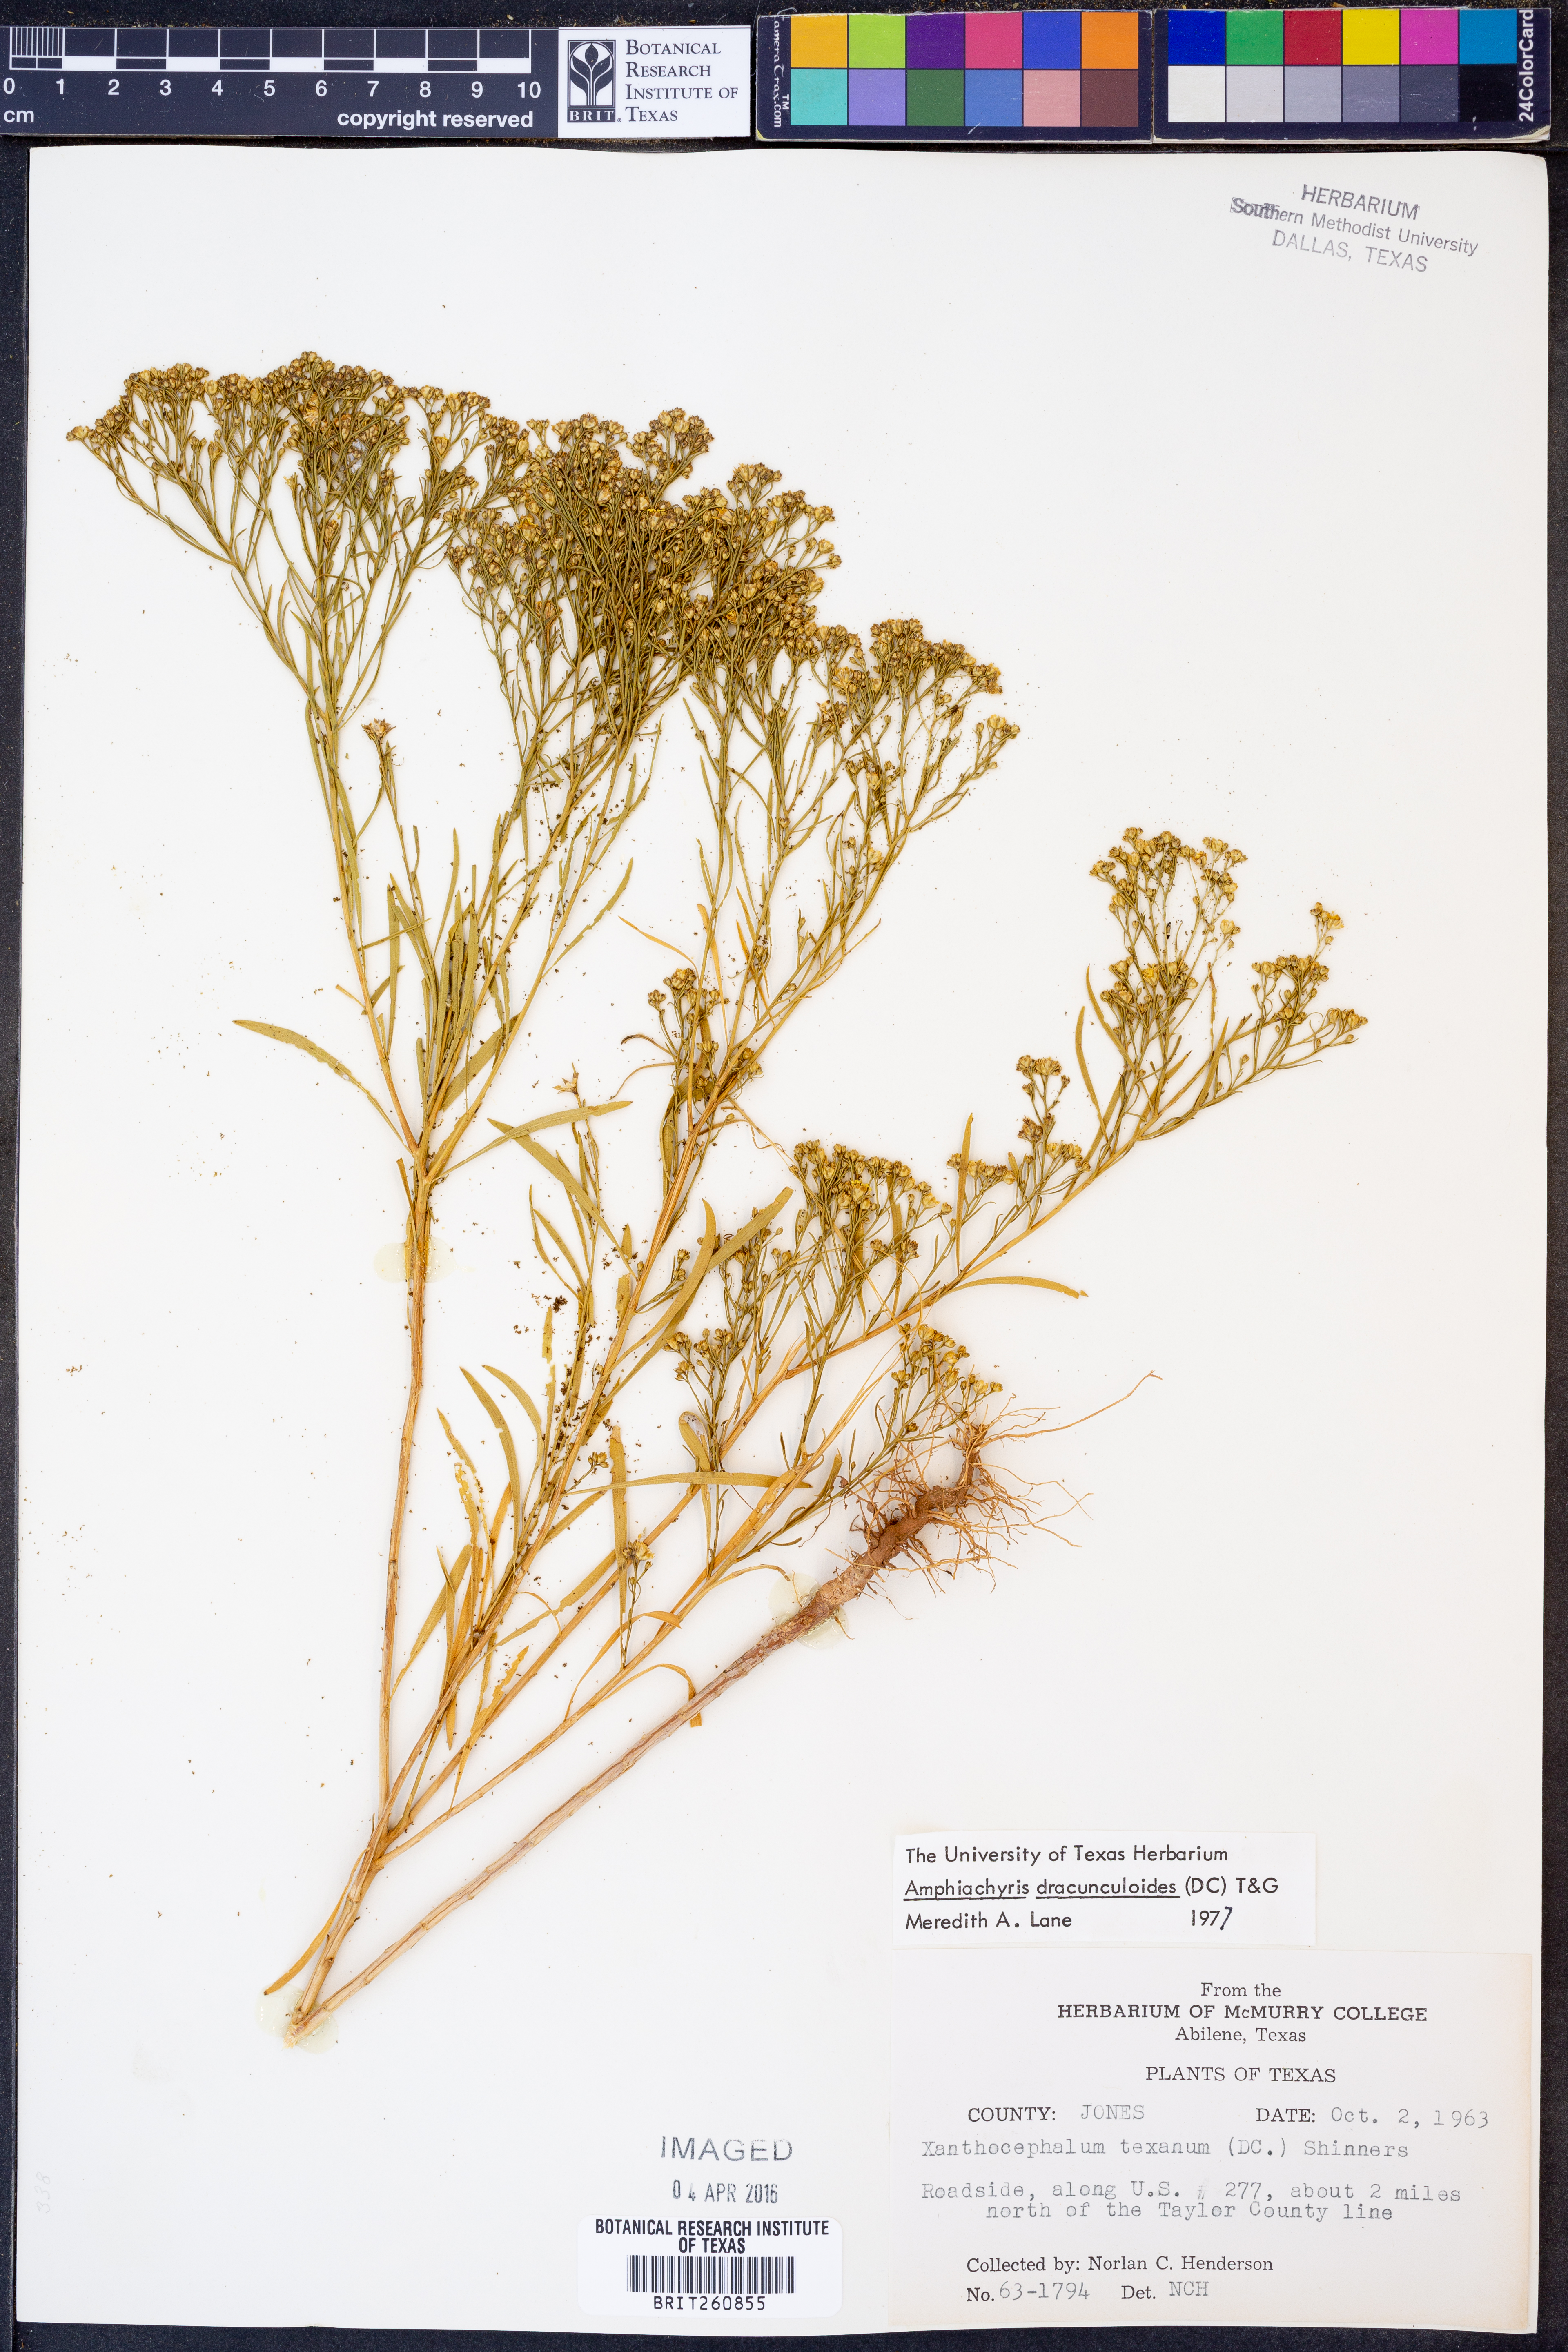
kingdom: Plantae
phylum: Tracheophyta
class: Magnoliopsida
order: Asterales
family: Asteraceae
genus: Amphiachyris
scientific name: Amphiachyris dracunculoides
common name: Broomweed
